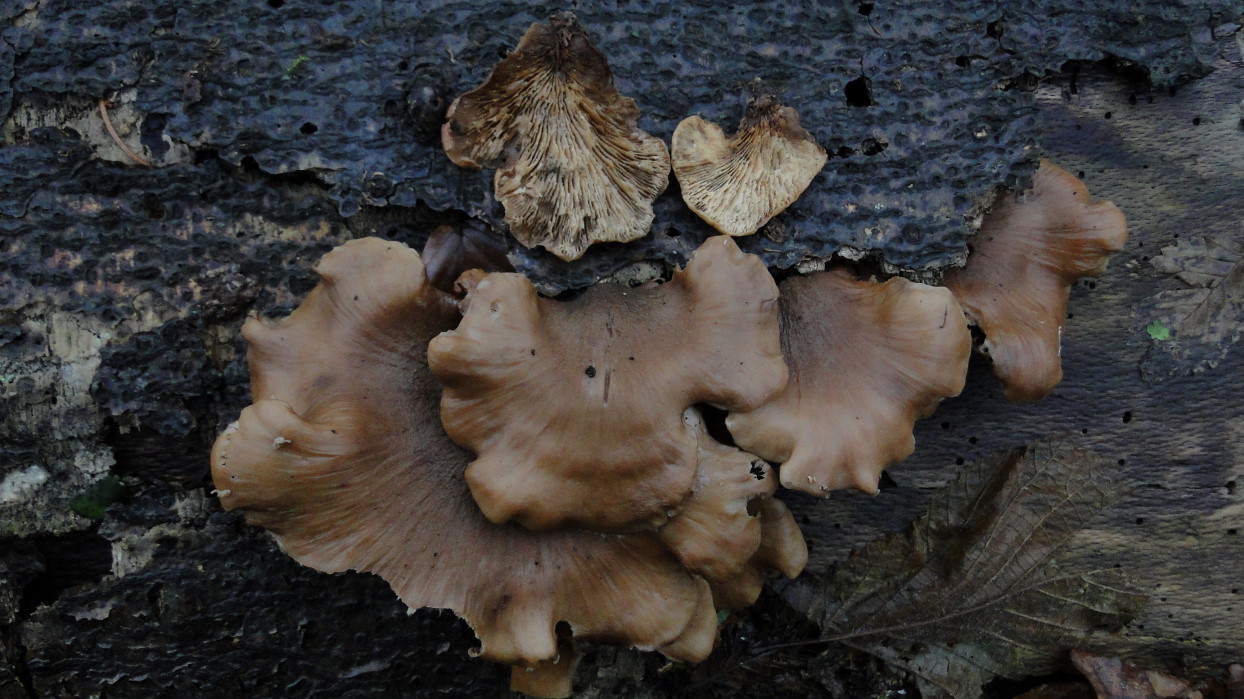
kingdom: Fungi
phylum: Basidiomycota
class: Agaricomycetes
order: Russulales
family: Auriscalpiaceae
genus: Lentinellus
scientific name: Lentinellus ursinus
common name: børstehåret savbladhat
